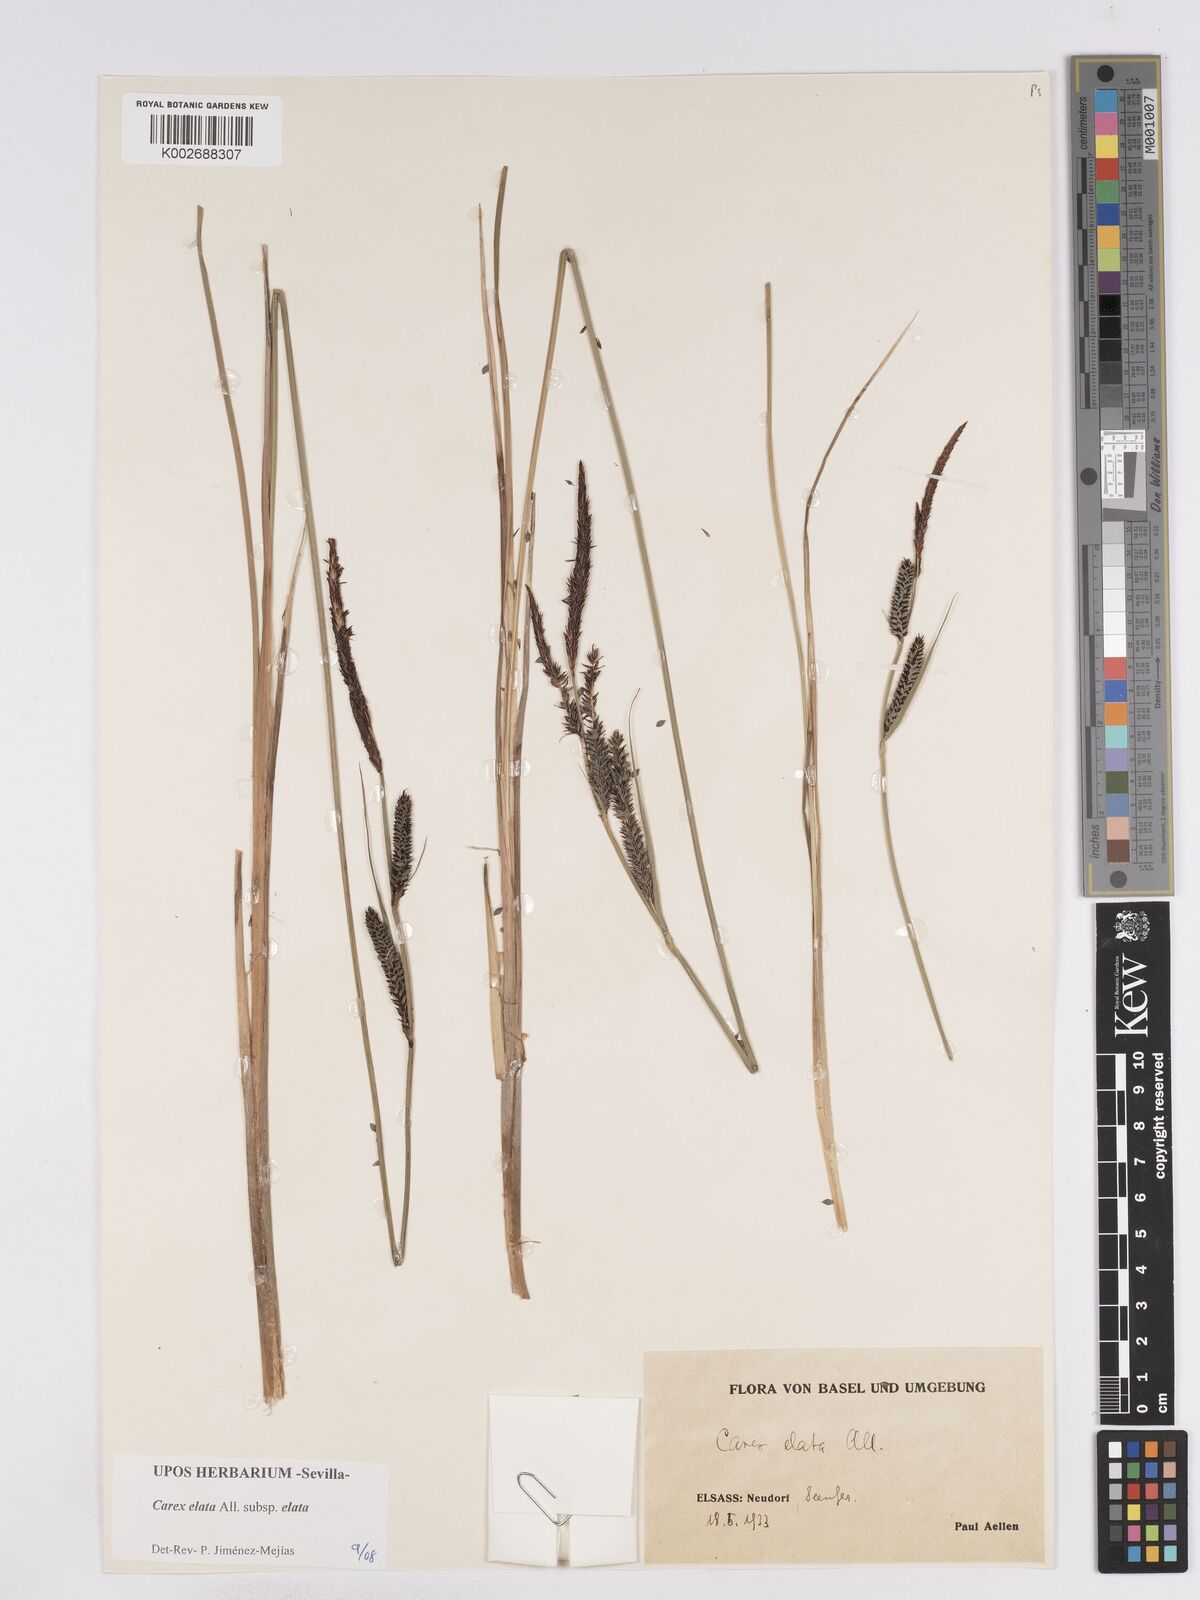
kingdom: Plantae
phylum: Tracheophyta
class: Liliopsida
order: Poales
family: Cyperaceae
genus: Carex
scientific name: Carex elata
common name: Tufted sedge
